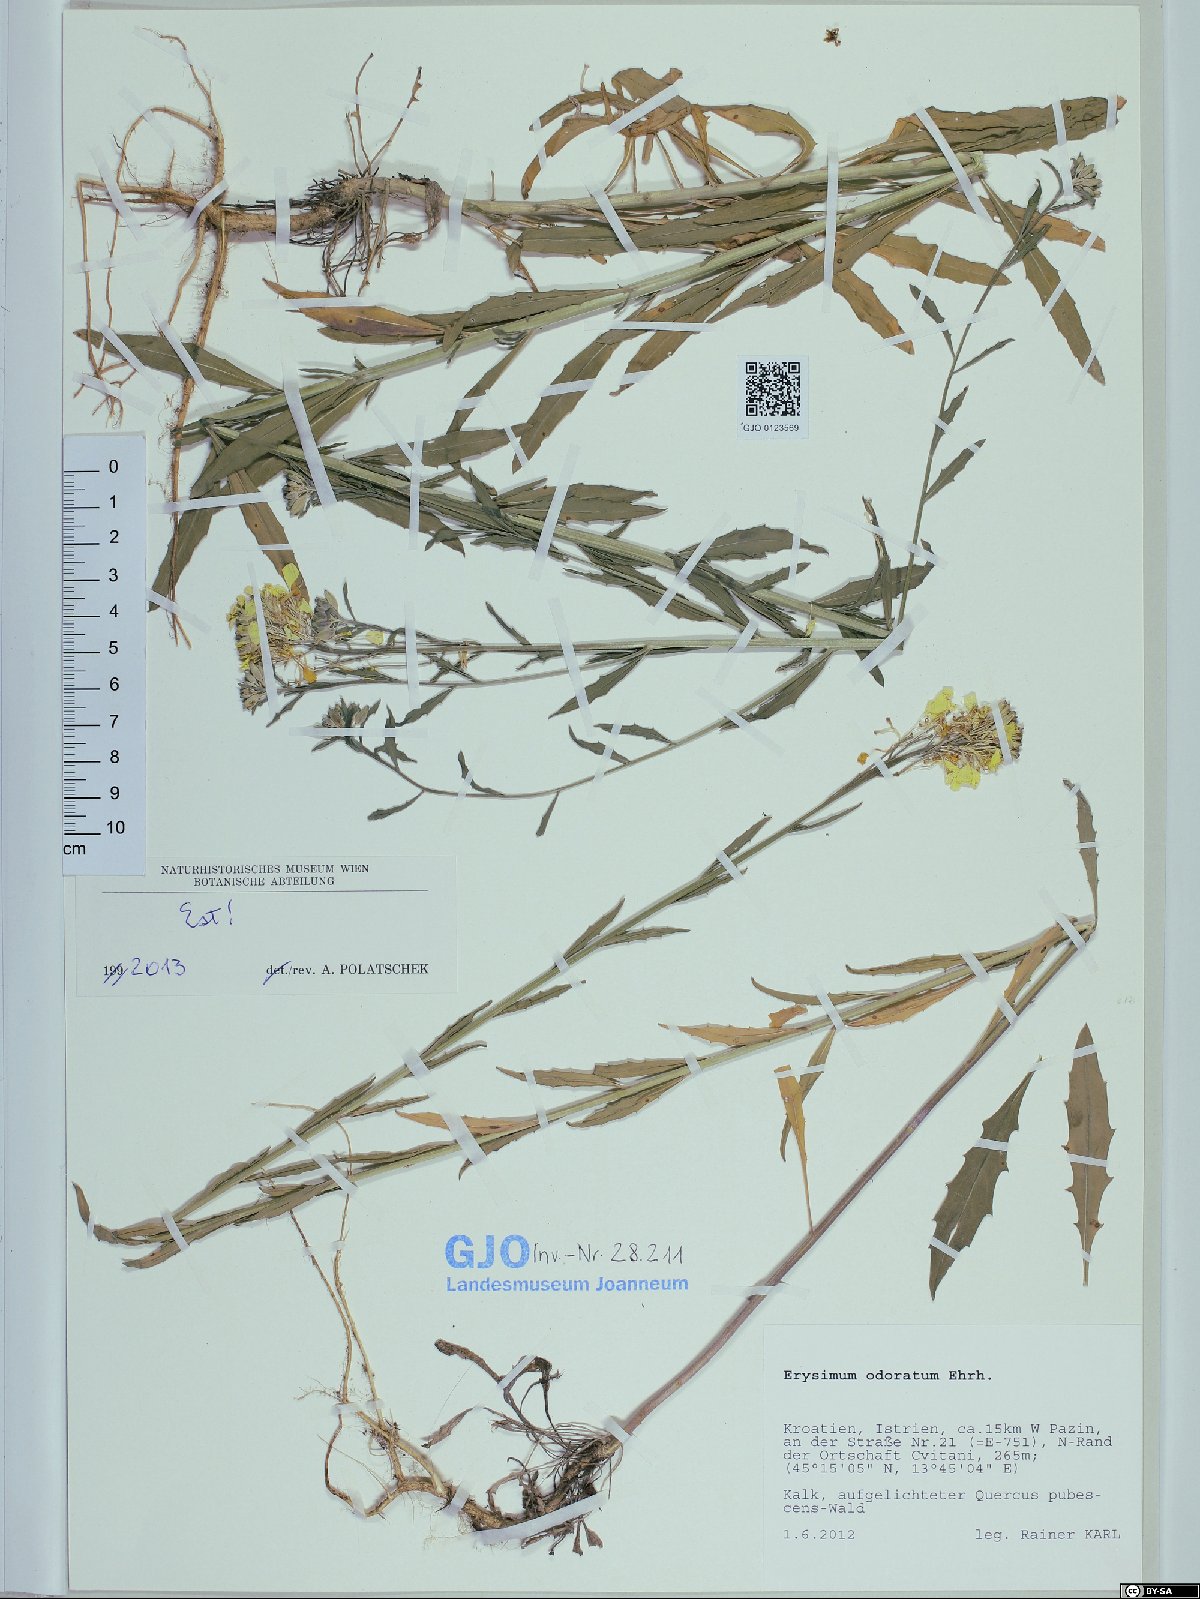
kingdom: Plantae
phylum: Tracheophyta
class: Magnoliopsida
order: Brassicales
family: Brassicaceae
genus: Erysimum
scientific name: Erysimum odoratum
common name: Smelly wallflower
